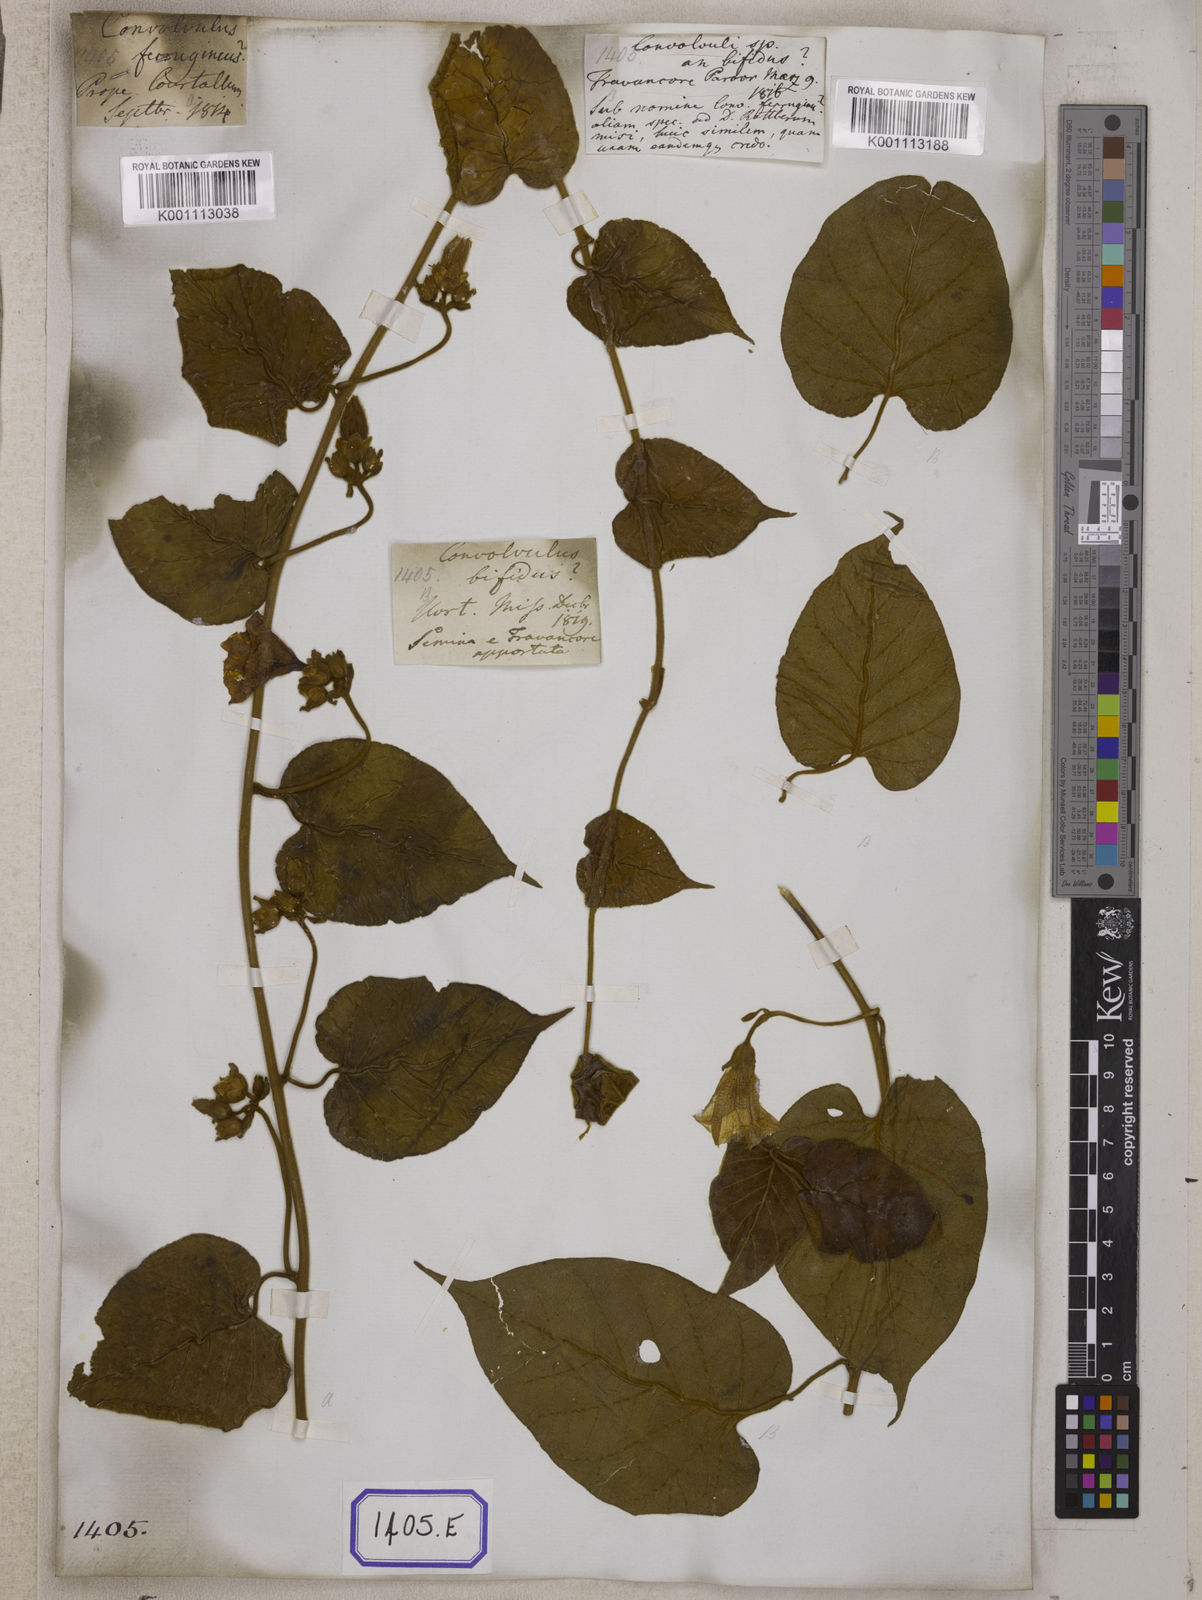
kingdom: Plantae
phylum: Tracheophyta
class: Magnoliopsida
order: Solanales
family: Convolvulaceae
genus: Bonamia
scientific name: Bonamia semidigyna
